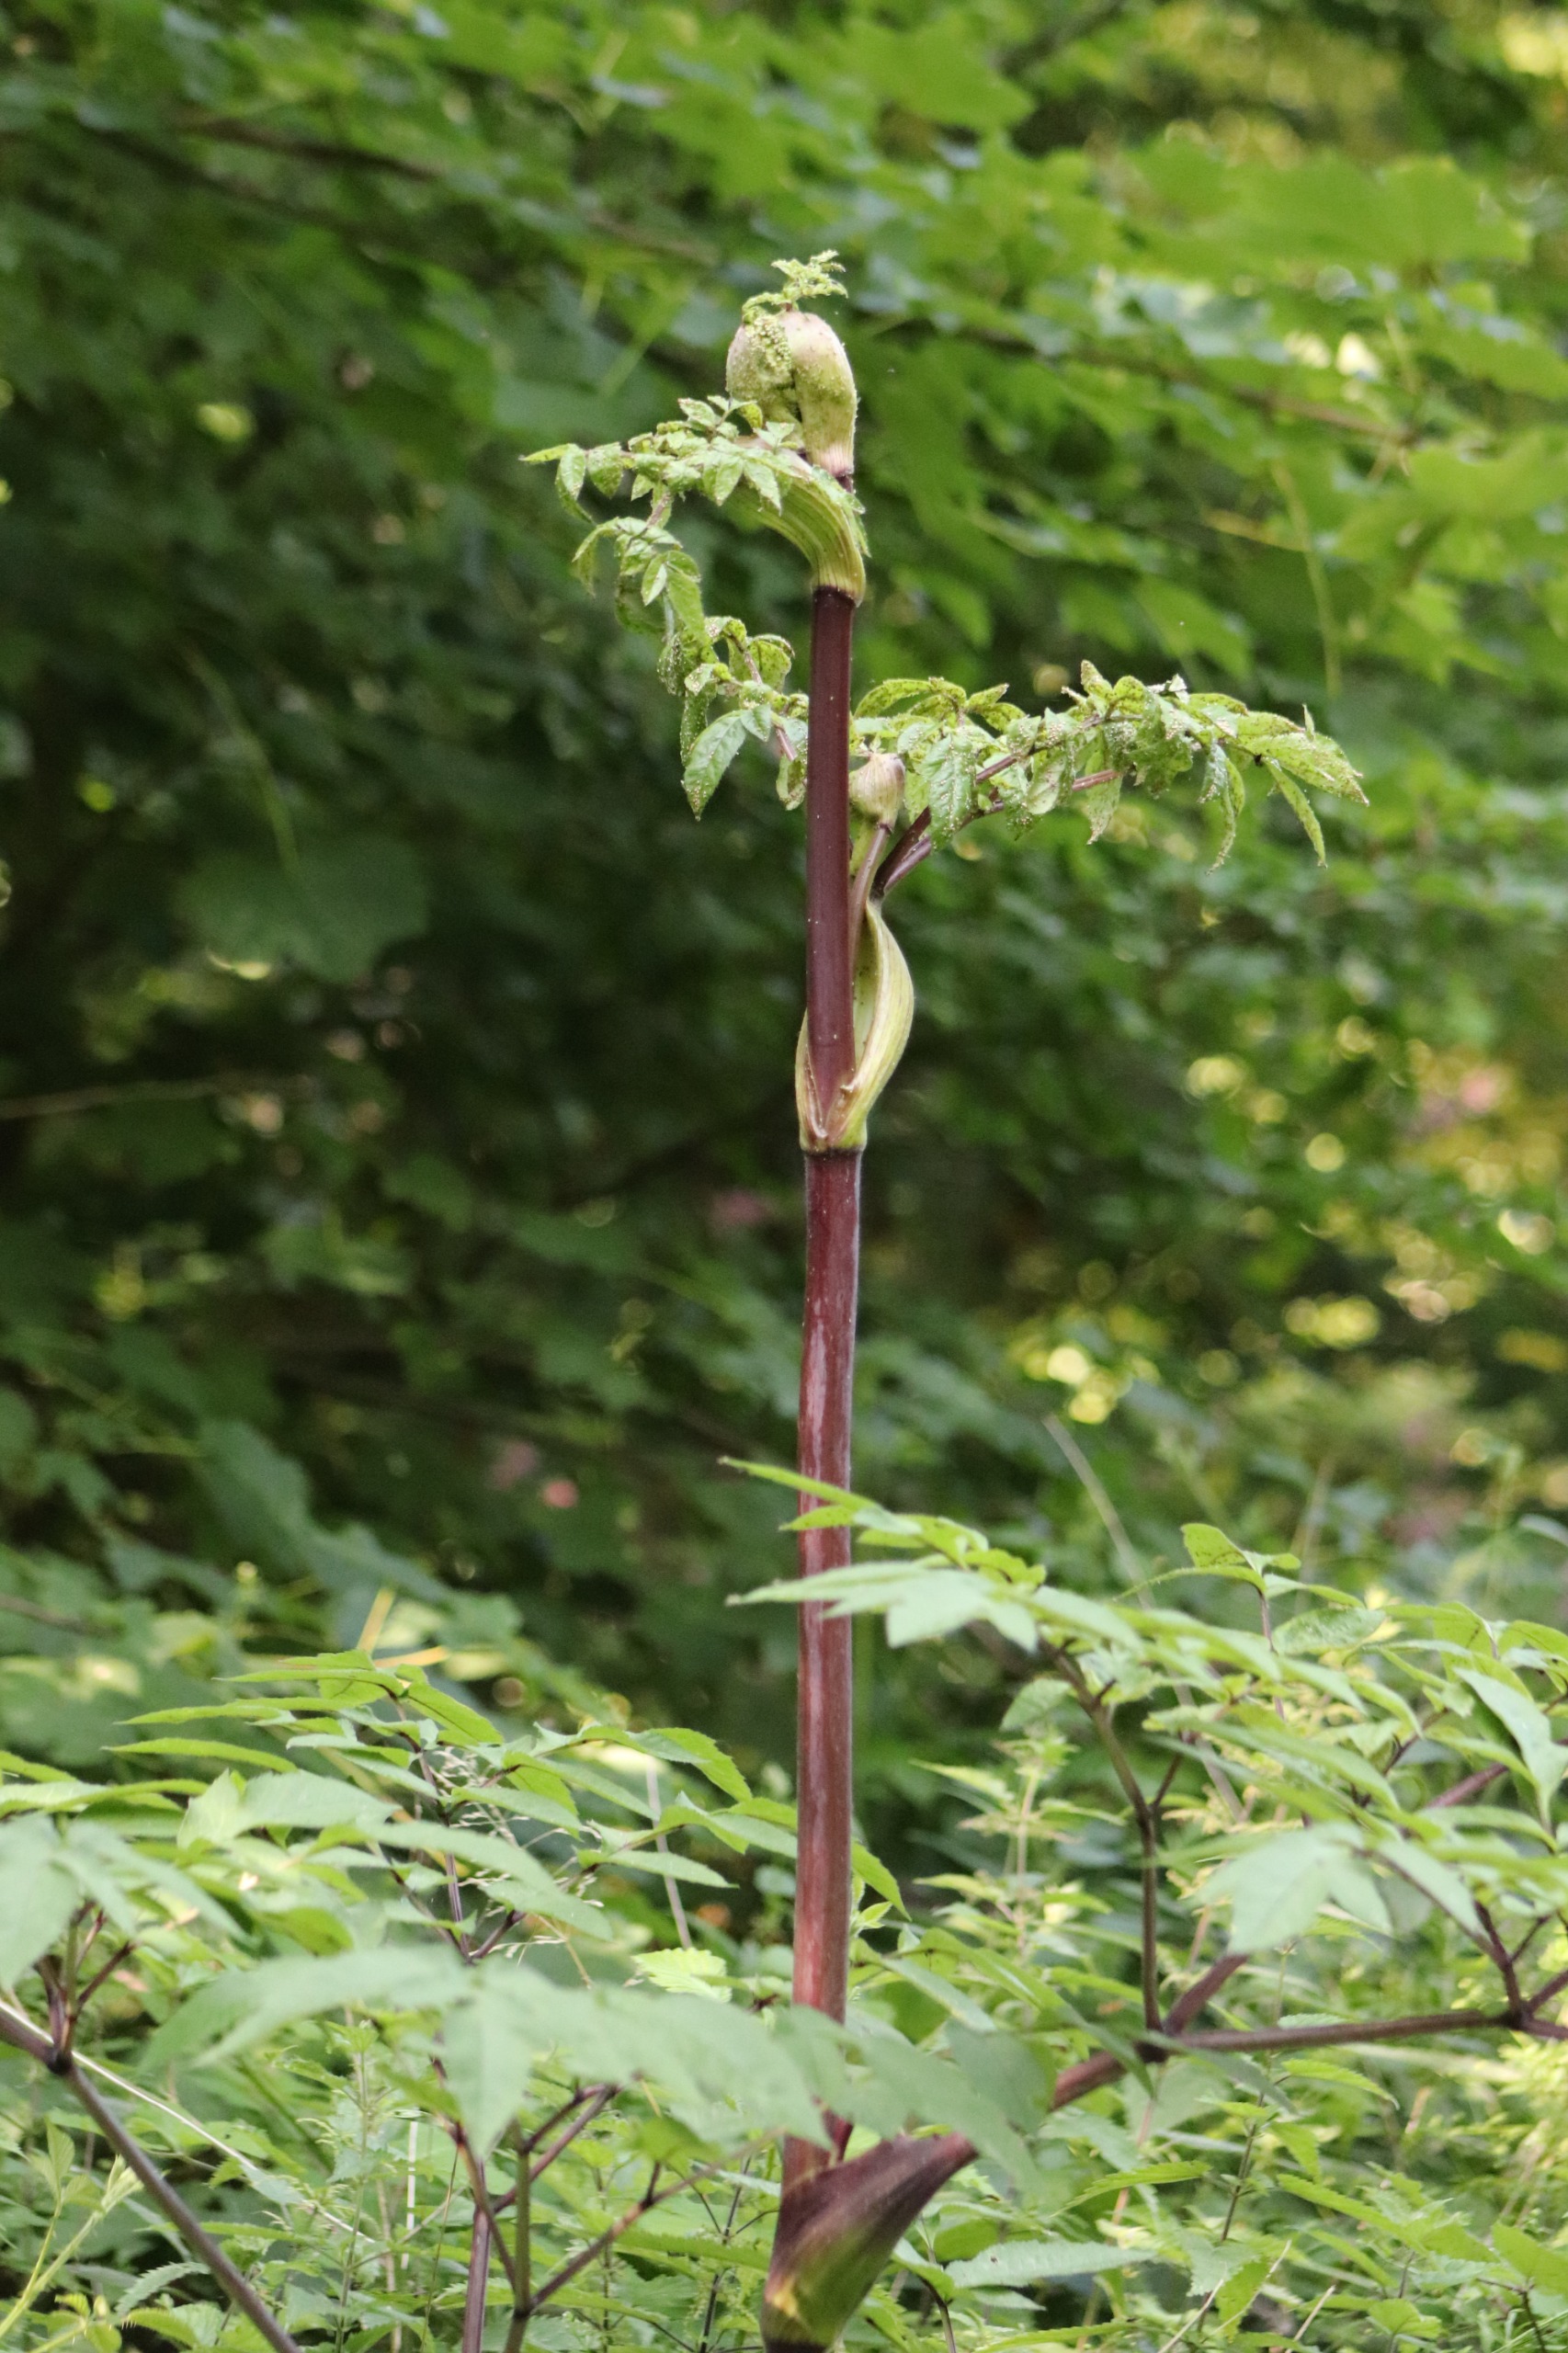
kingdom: Plantae
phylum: Tracheophyta
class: Magnoliopsida
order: Apiales
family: Apiaceae
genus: Angelica
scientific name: Angelica sylvestris
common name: Angelik
